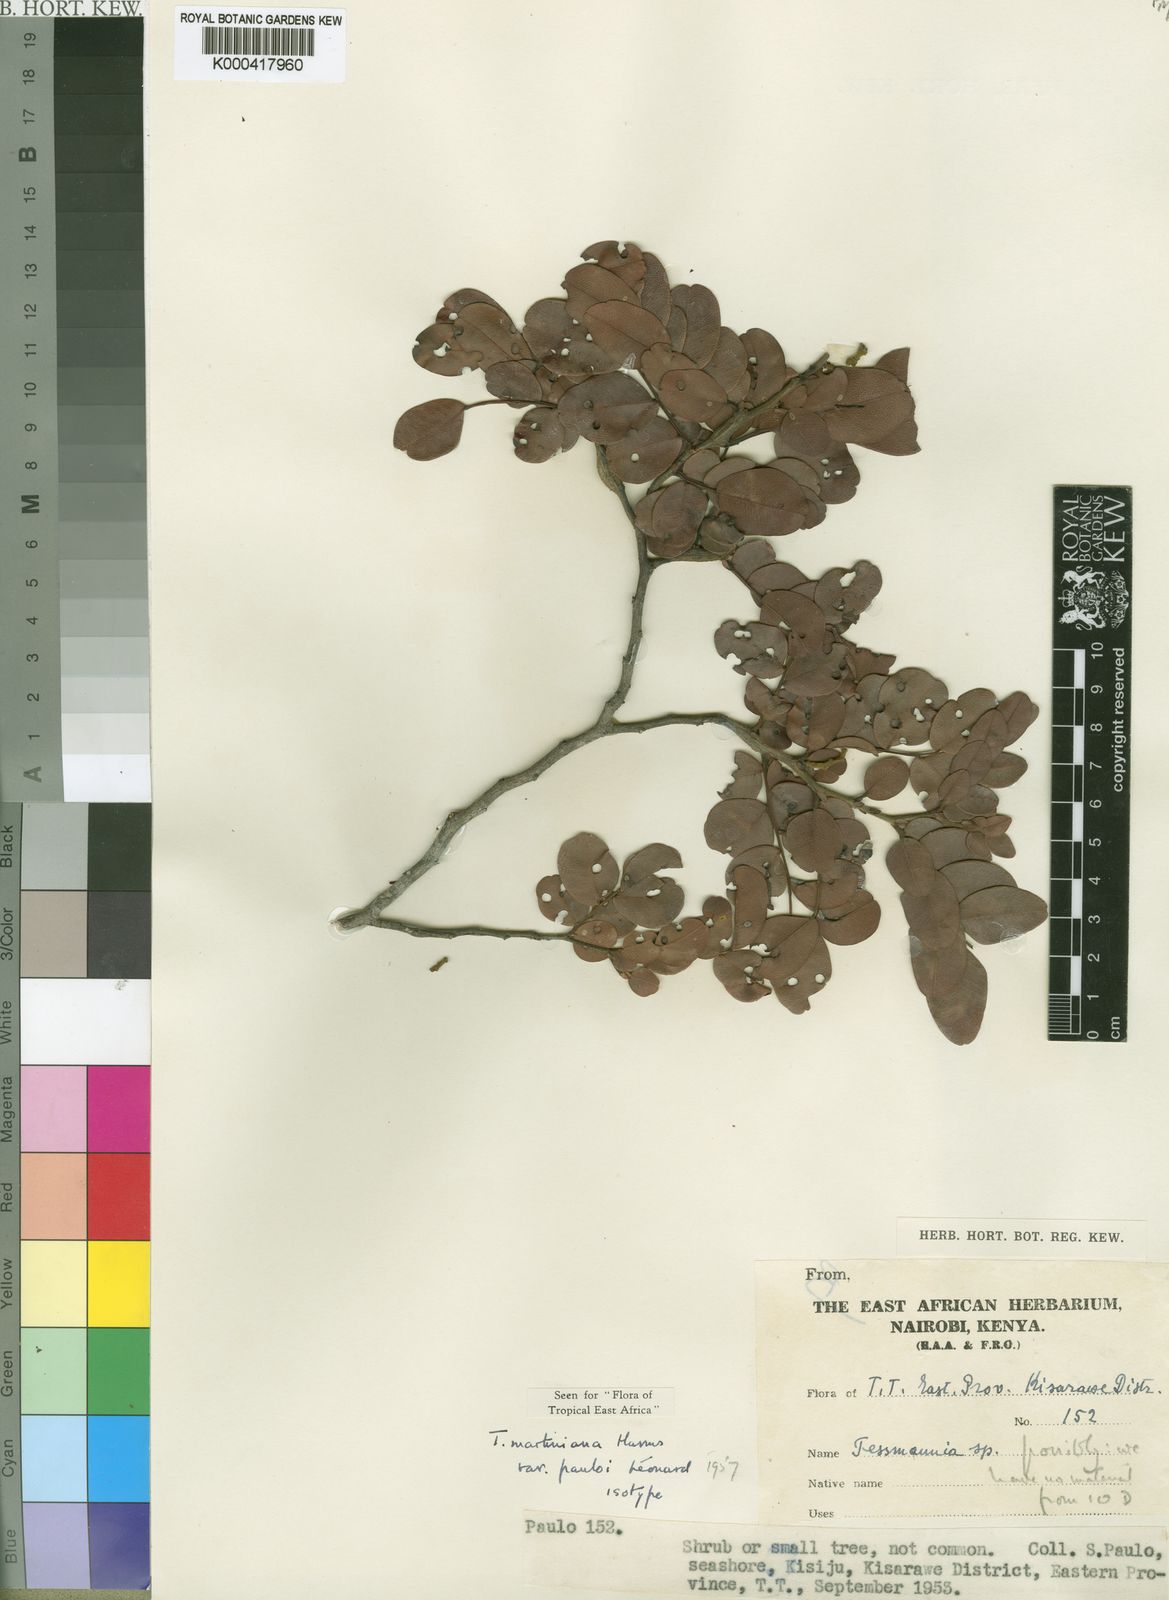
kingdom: Plantae
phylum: Tracheophyta
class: Magnoliopsida
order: Fabales
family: Fabaceae
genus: Tessmannia
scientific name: Tessmannia martiniana
